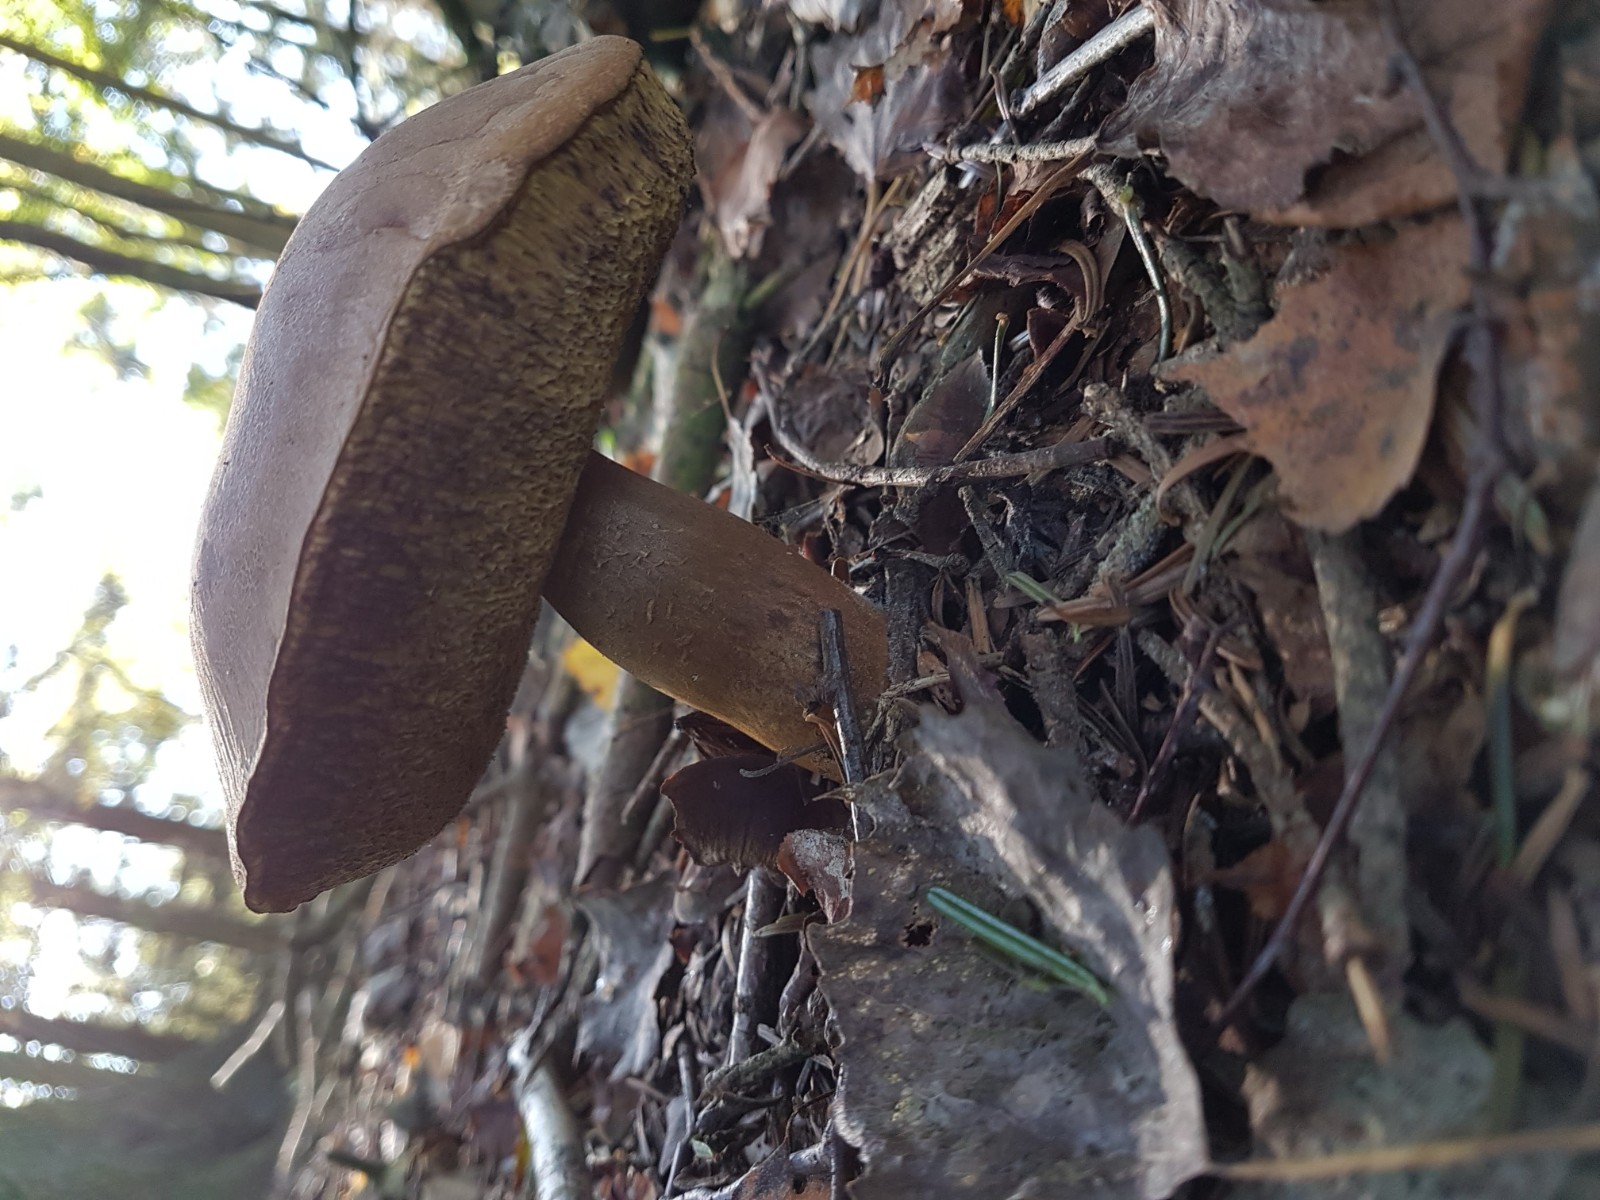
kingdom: Fungi
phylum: Basidiomycota
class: Agaricomycetes
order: Boletales
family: Boletaceae
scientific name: Boletaceae
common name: rørhatfamilien
